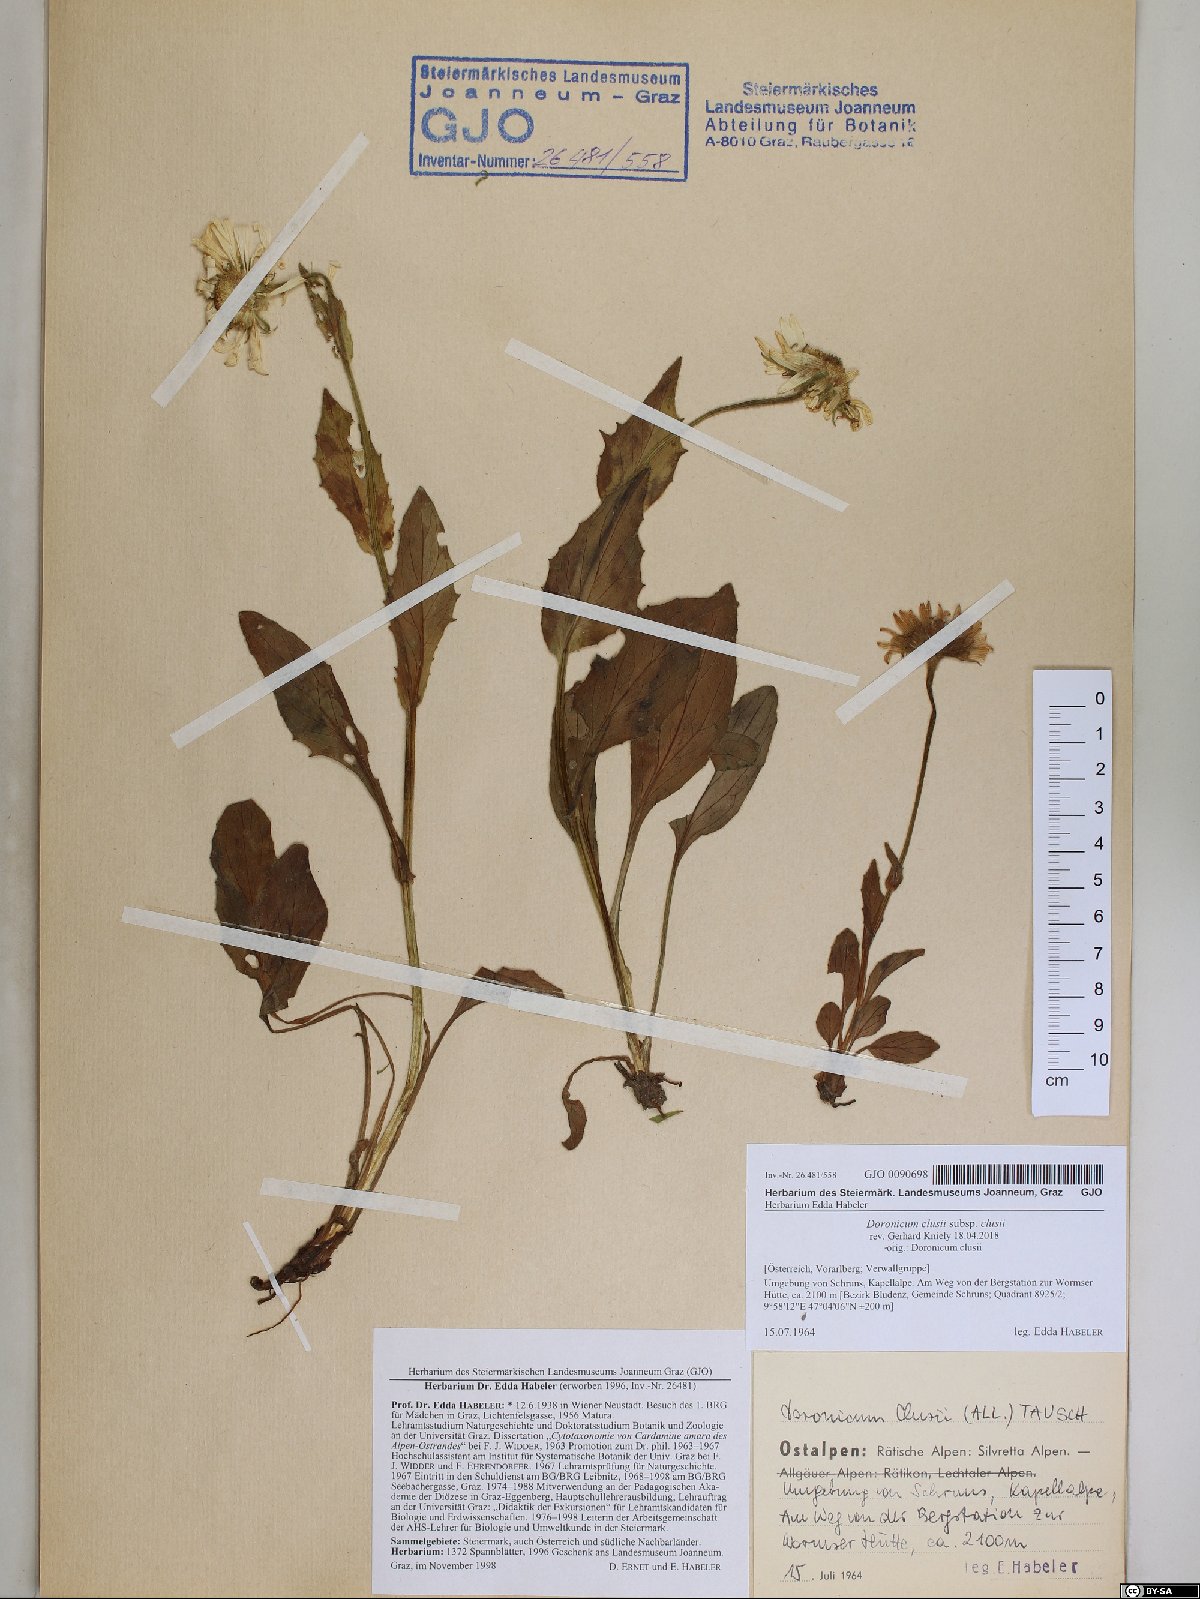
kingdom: Plantae
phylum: Tracheophyta
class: Magnoliopsida
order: Asterales
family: Asteraceae
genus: Doronicum
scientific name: Doronicum clusii
